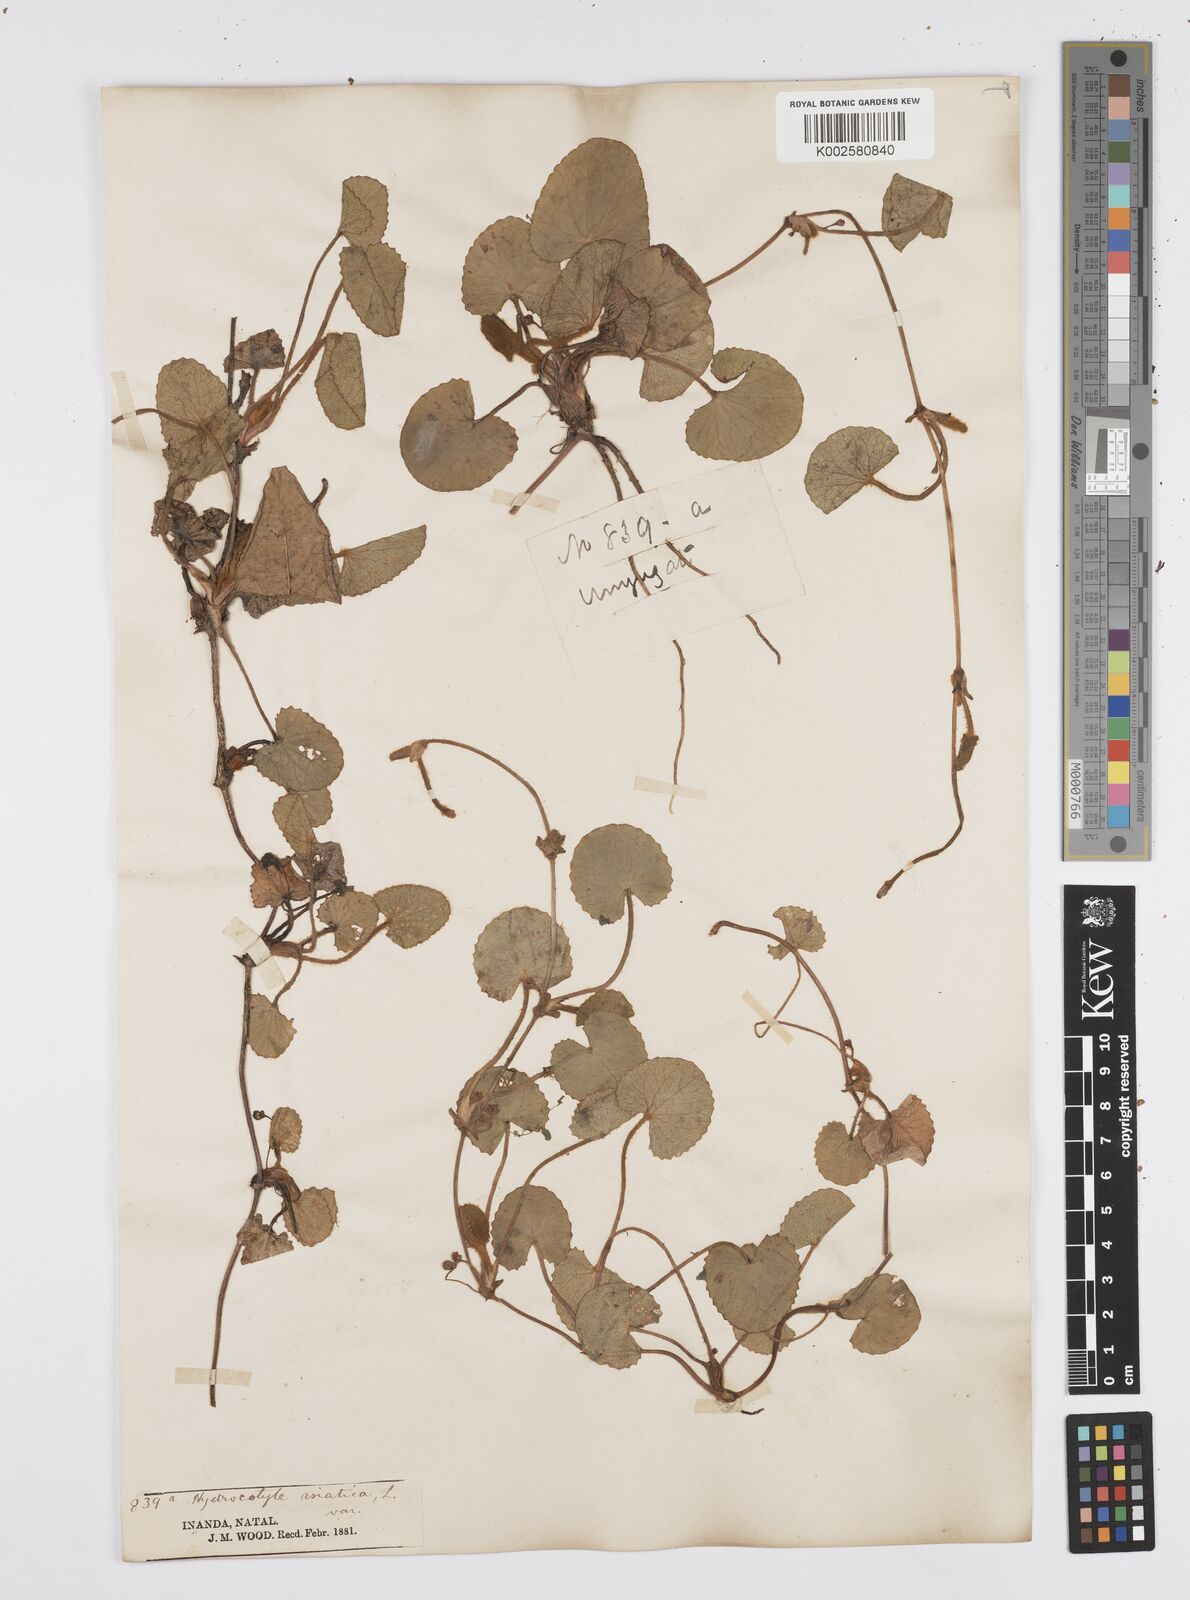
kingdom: Plantae
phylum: Tracheophyta
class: Magnoliopsida
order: Apiales
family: Apiaceae
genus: Centella
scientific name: Centella coriacea
